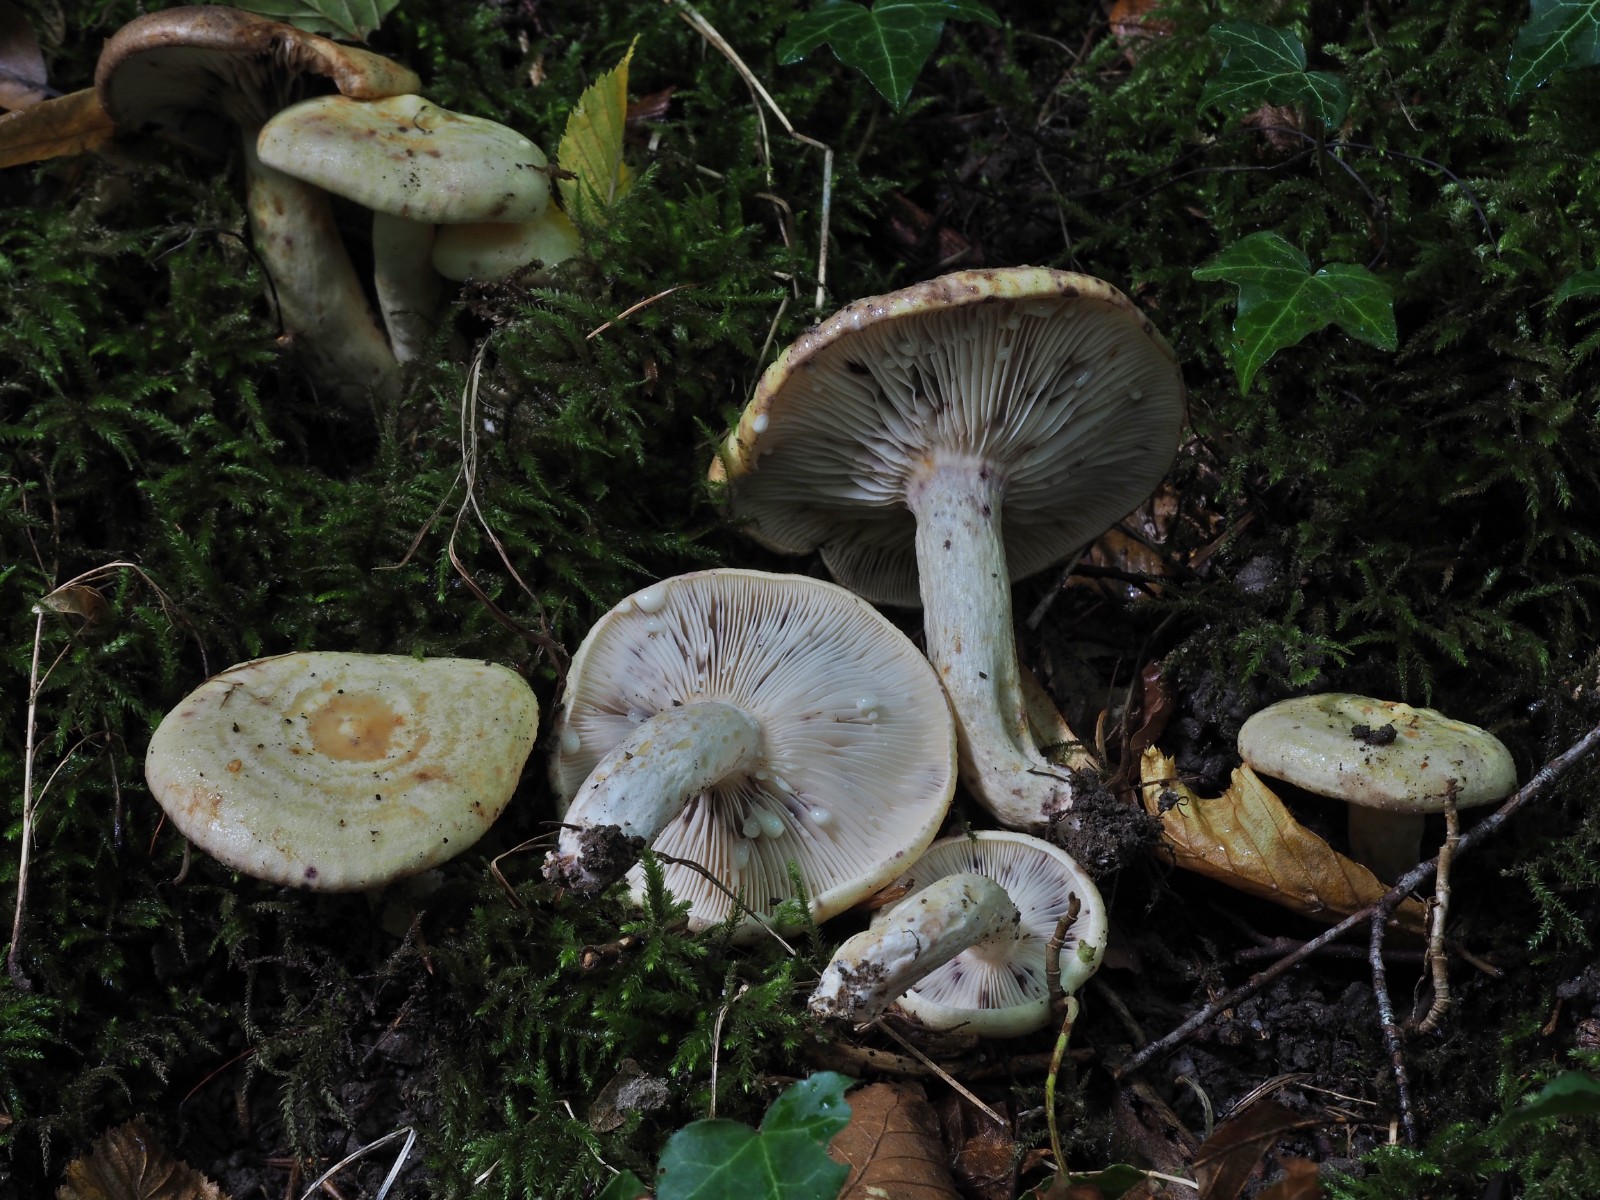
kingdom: Fungi
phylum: Basidiomycota
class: Agaricomycetes
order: Russulales
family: Russulaceae
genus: Lactarius
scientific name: Lactarius flavidus
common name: bleggul mælkehat
